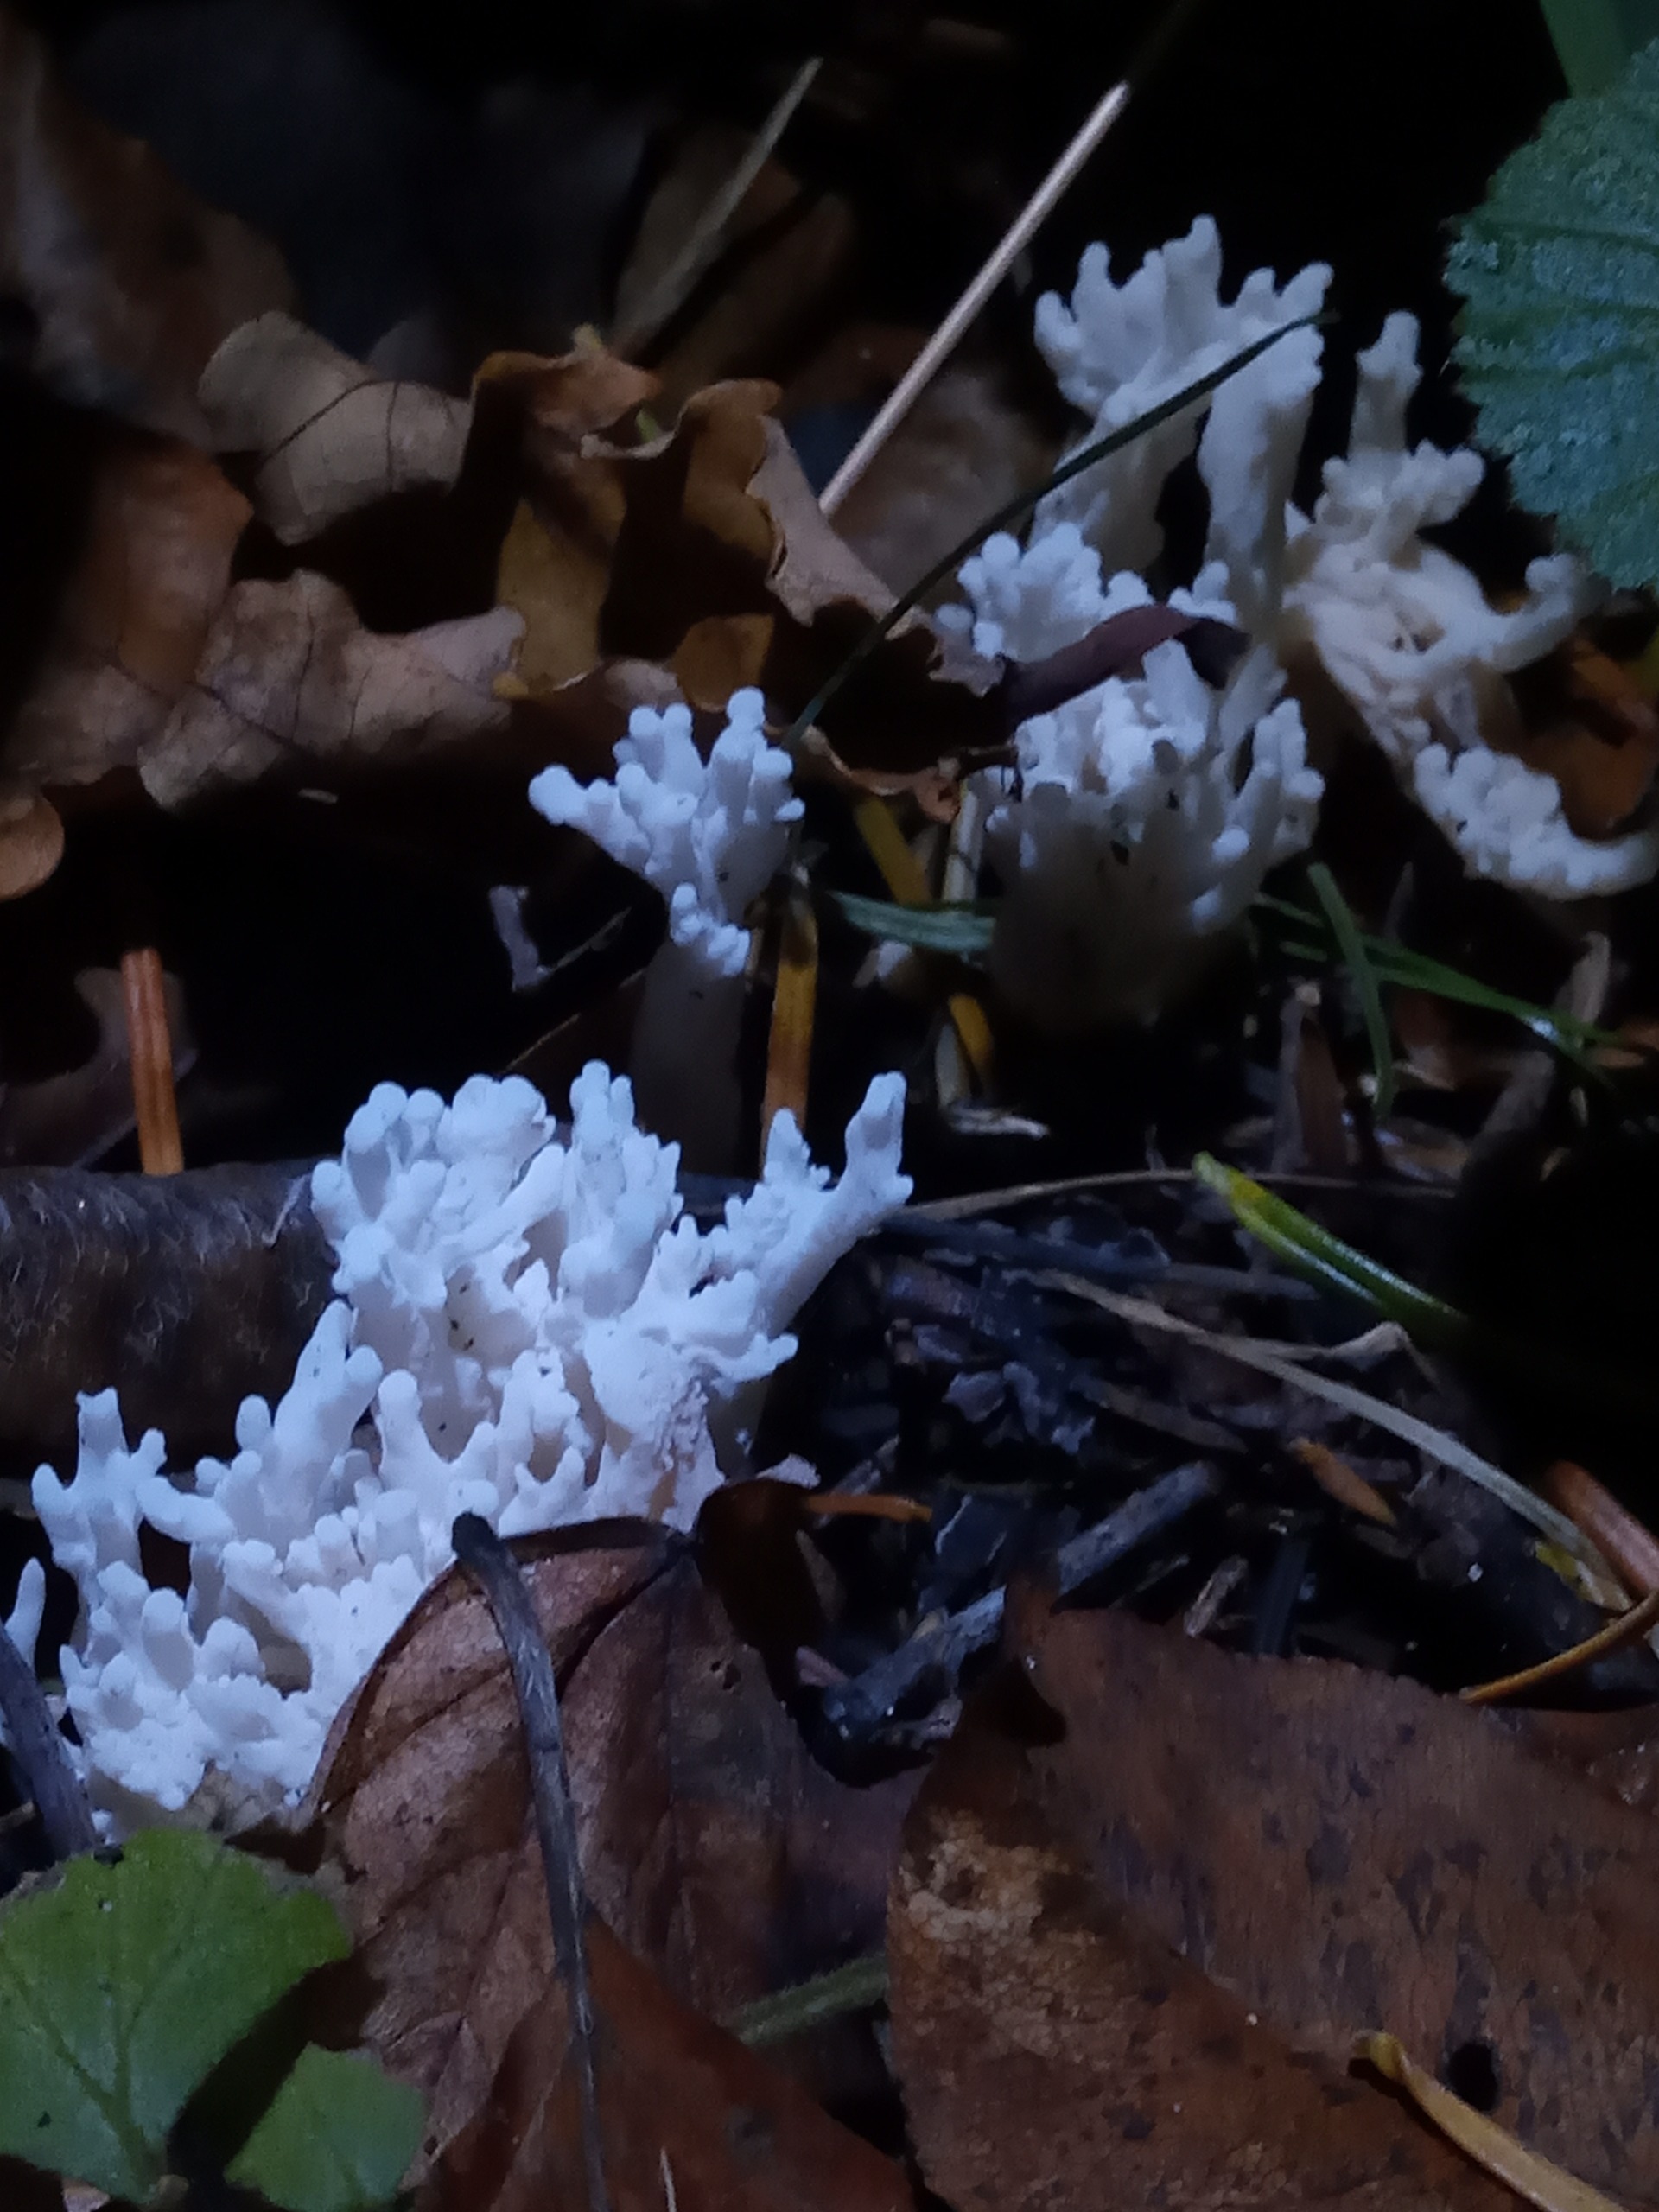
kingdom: Fungi
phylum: Basidiomycota
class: Agaricomycetes
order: Cantharellales
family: Hydnaceae
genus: Clavulina
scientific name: Clavulina rugosa
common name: Rynket troldkølle
